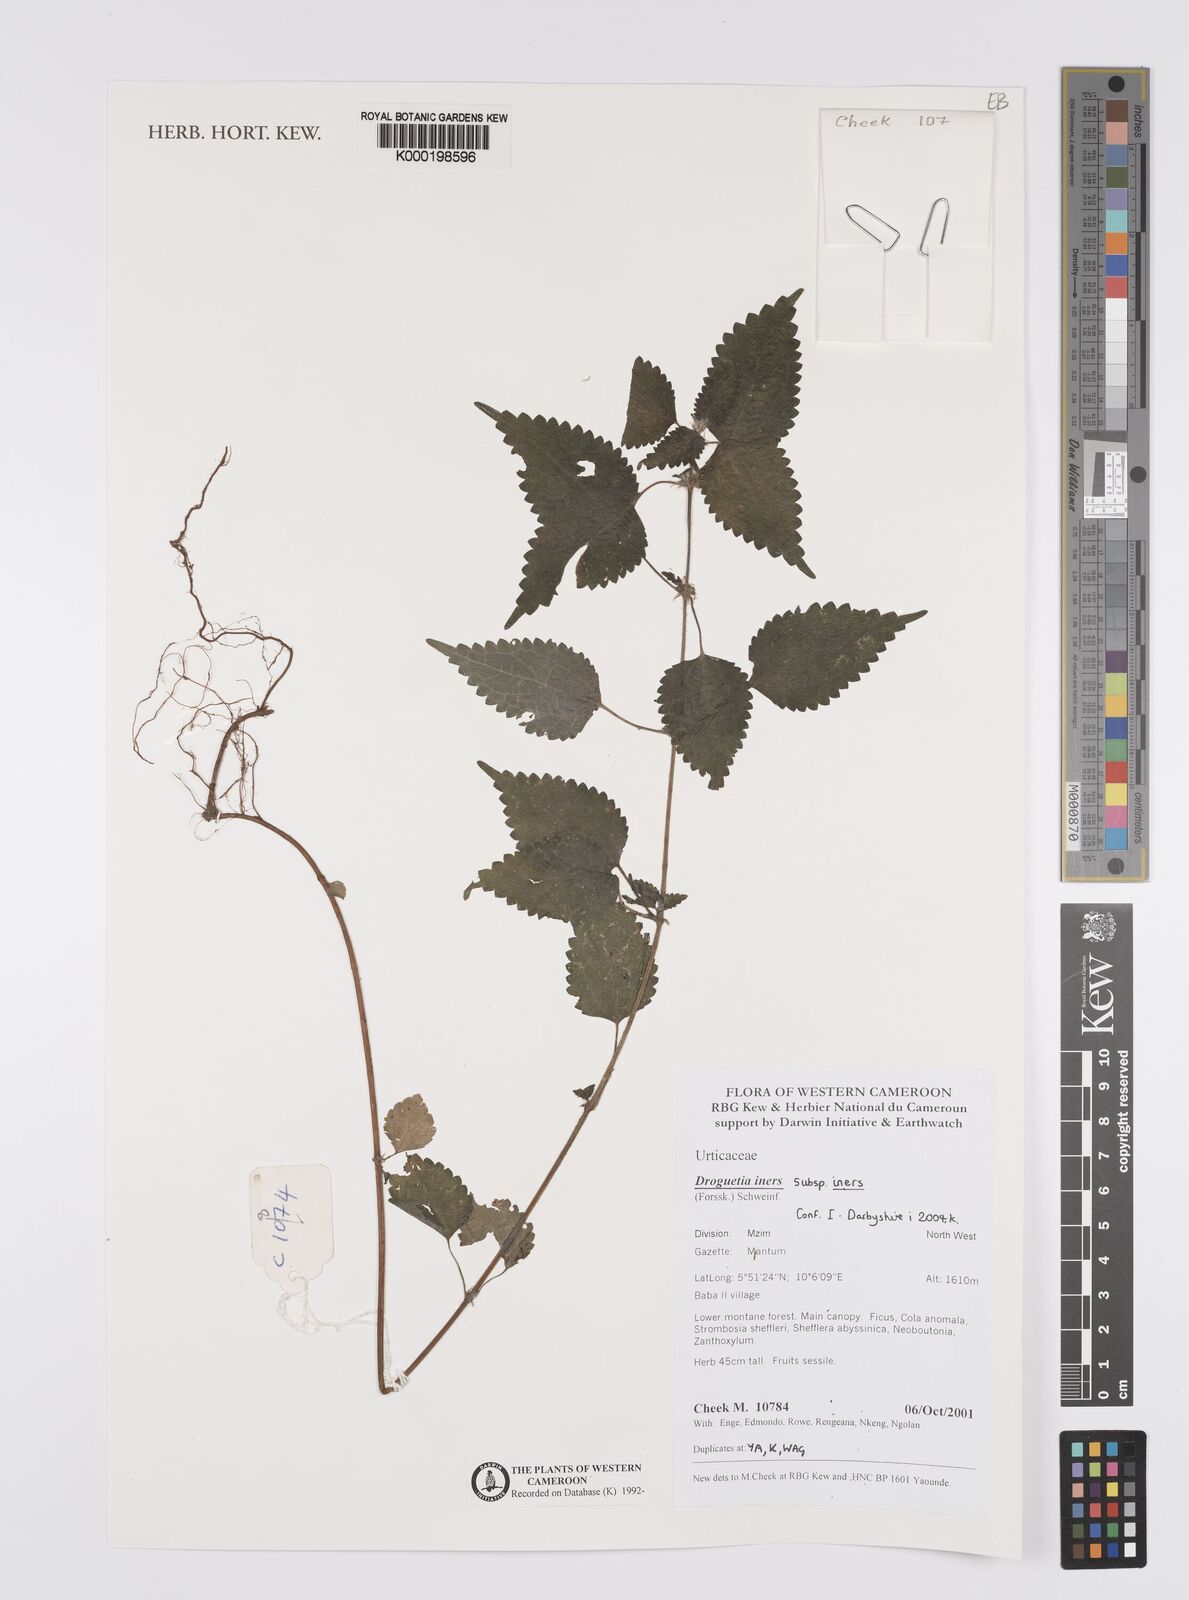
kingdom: Plantae
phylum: Tracheophyta
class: Magnoliopsida
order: Rosales
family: Urticaceae
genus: Droguetia
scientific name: Droguetia iners
